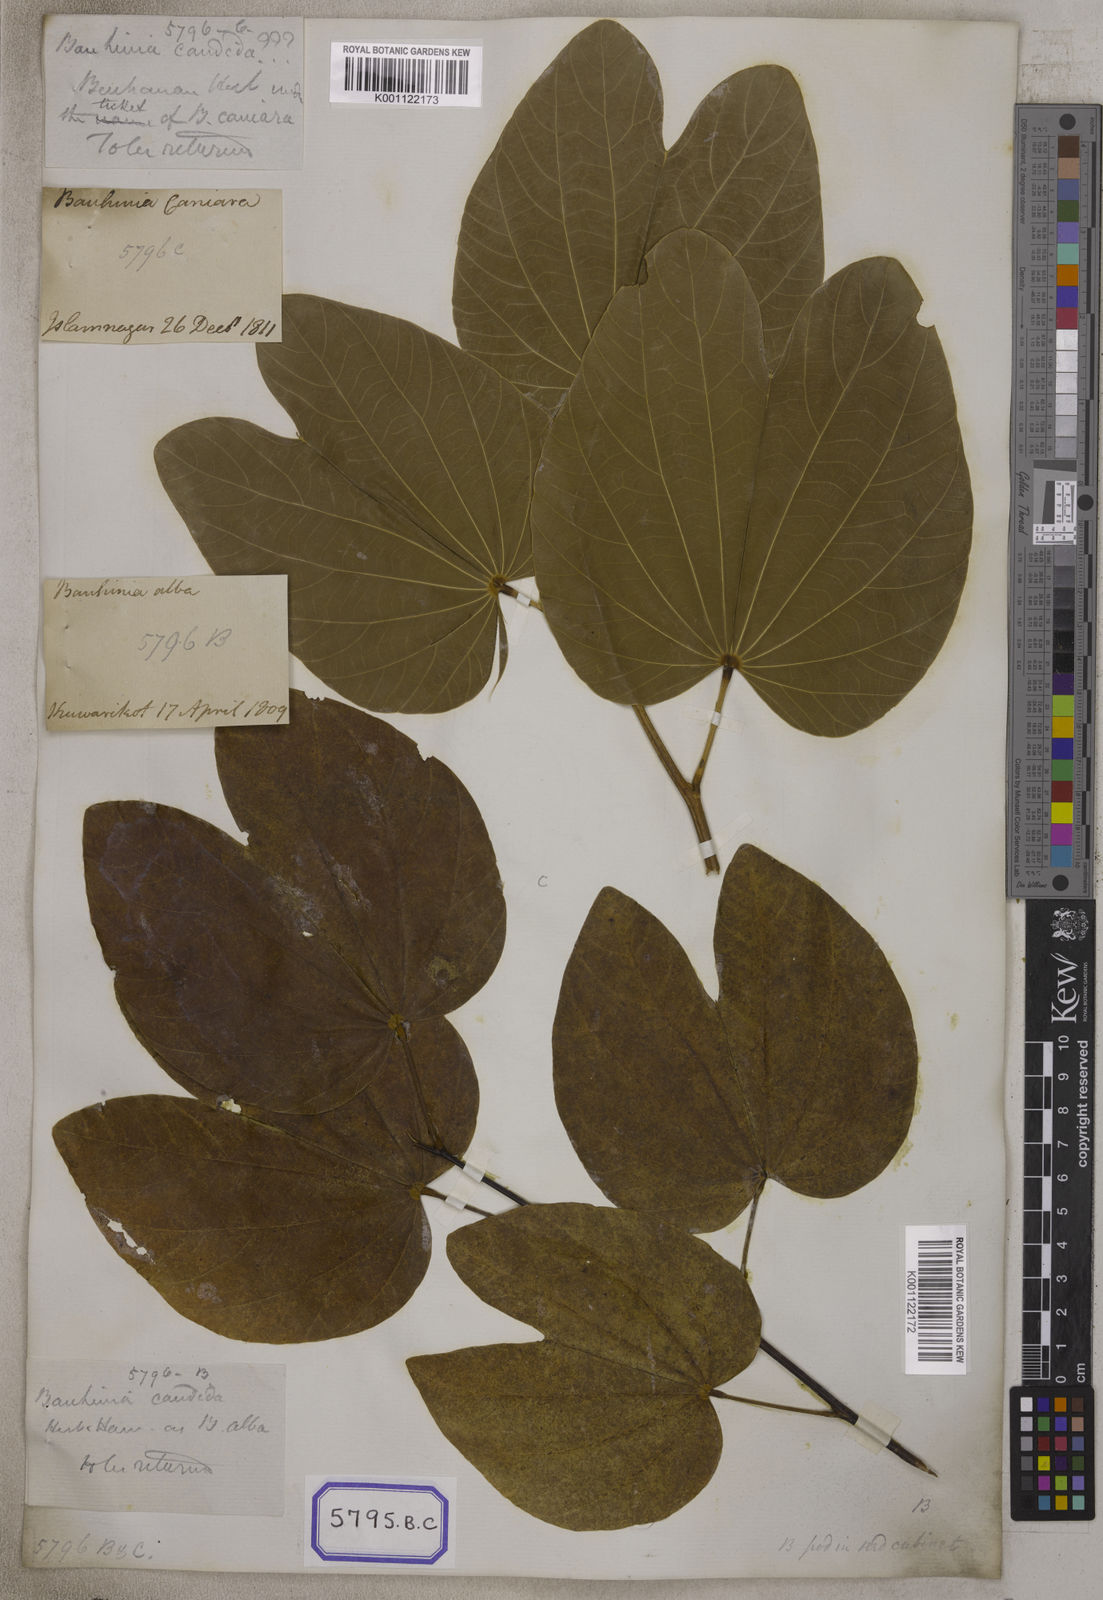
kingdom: Plantae
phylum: Tracheophyta
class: Magnoliopsida
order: Fabales
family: Fabaceae
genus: Bauhinia
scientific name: Bauhinia variegata
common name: Mountain ebony
